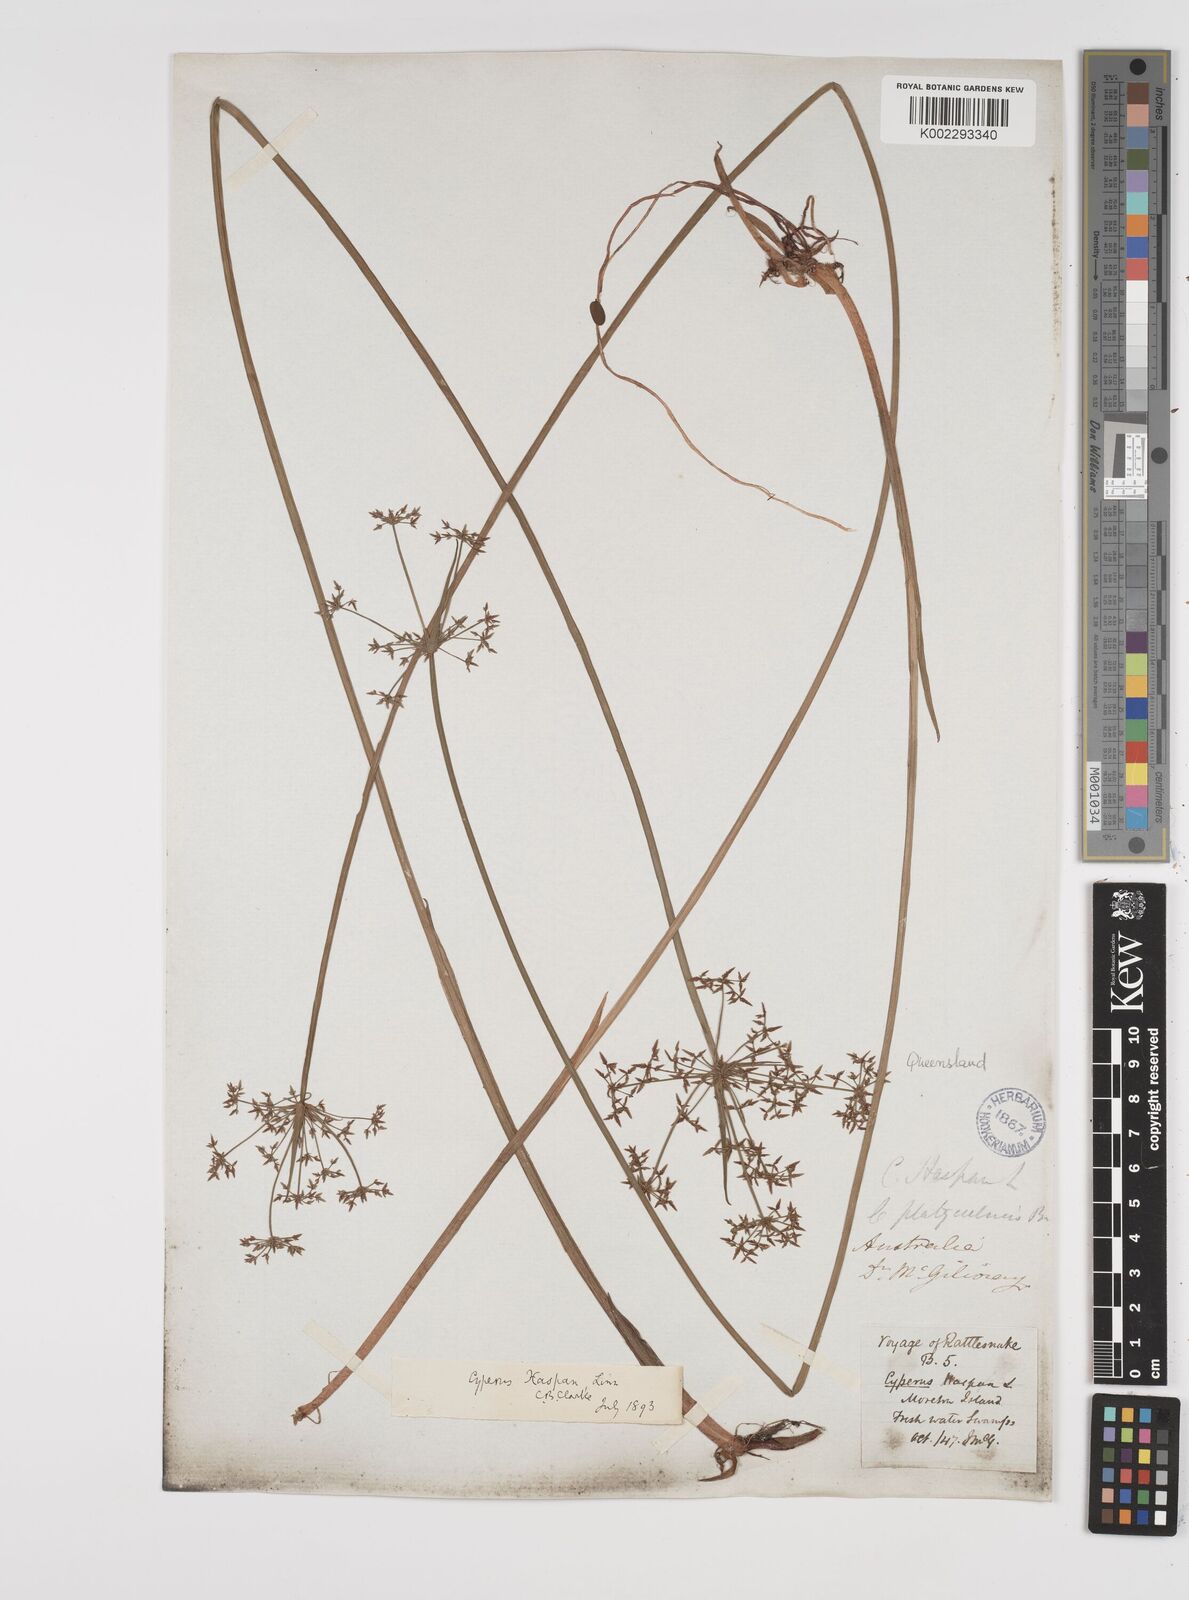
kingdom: Plantae
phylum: Tracheophyta
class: Liliopsida
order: Poales
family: Cyperaceae
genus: Cyperus
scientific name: Cyperus haspan
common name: Haspan flatsedge
